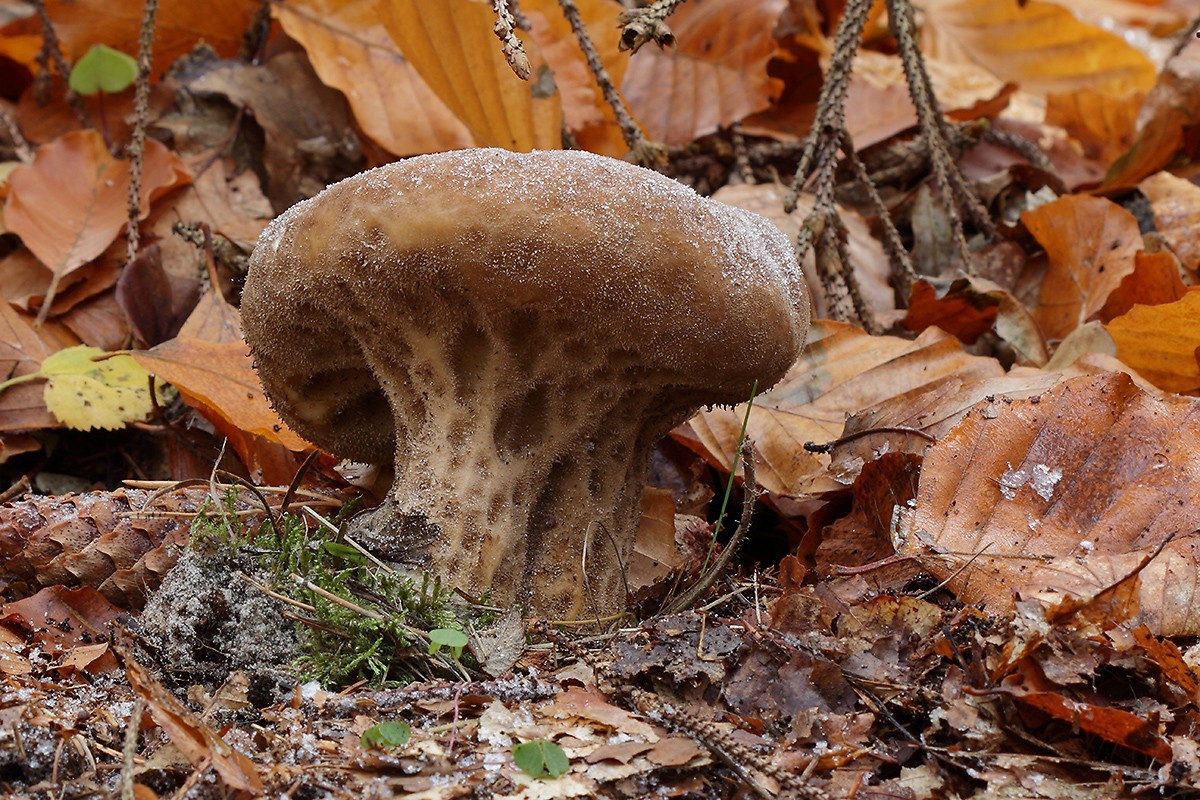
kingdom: Fungi
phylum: Basidiomycota
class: Agaricomycetes
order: Agaricales
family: Lycoperdaceae
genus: Lycoperdon
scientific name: Lycoperdon excipuliforme
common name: højstokket støvbold
